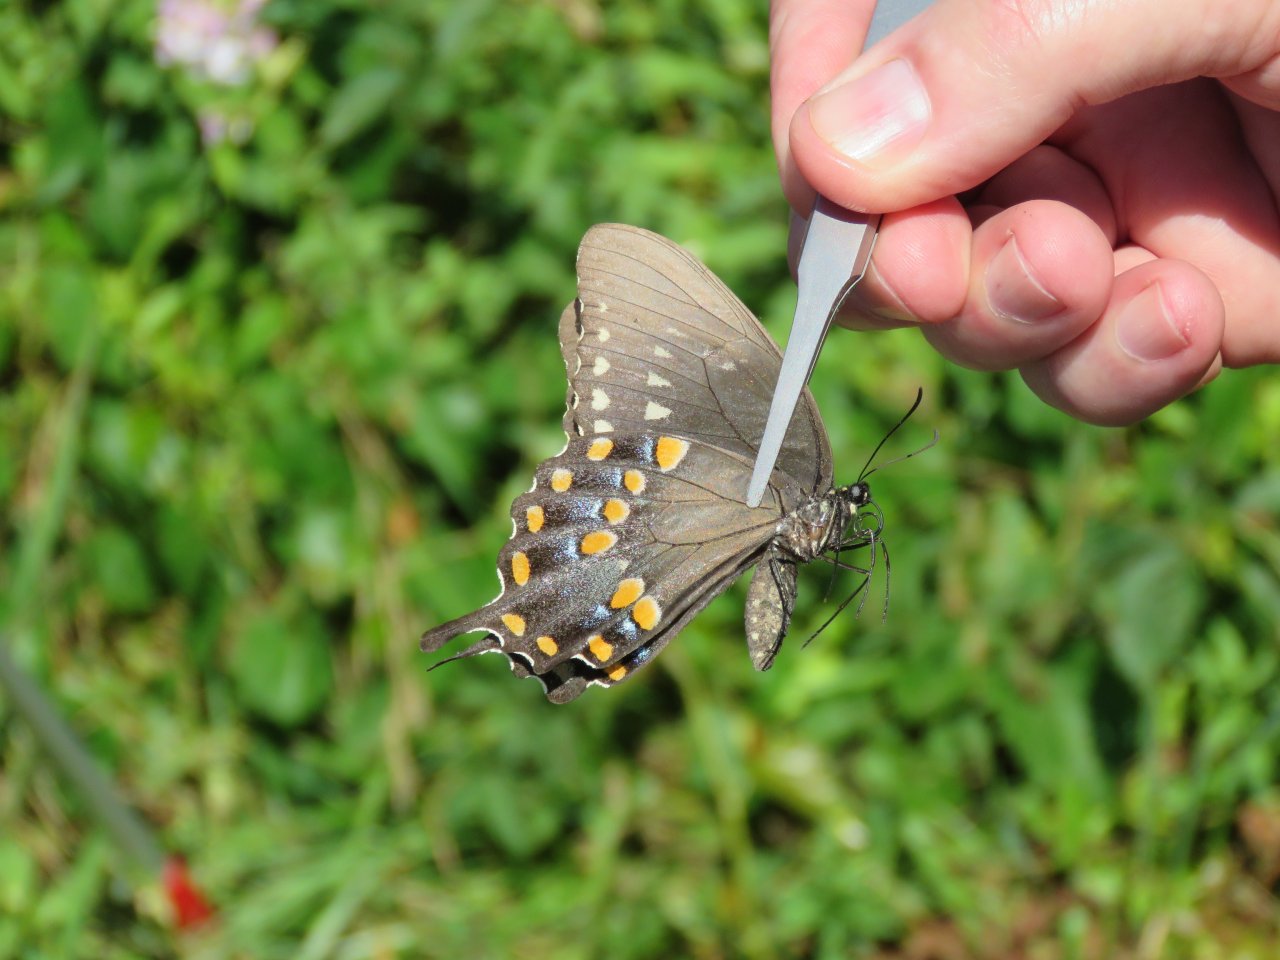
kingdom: Animalia
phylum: Arthropoda
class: Insecta
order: Lepidoptera
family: Papilionidae
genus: Pterourus
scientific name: Pterourus troilus
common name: Spicebush Swallowtail
